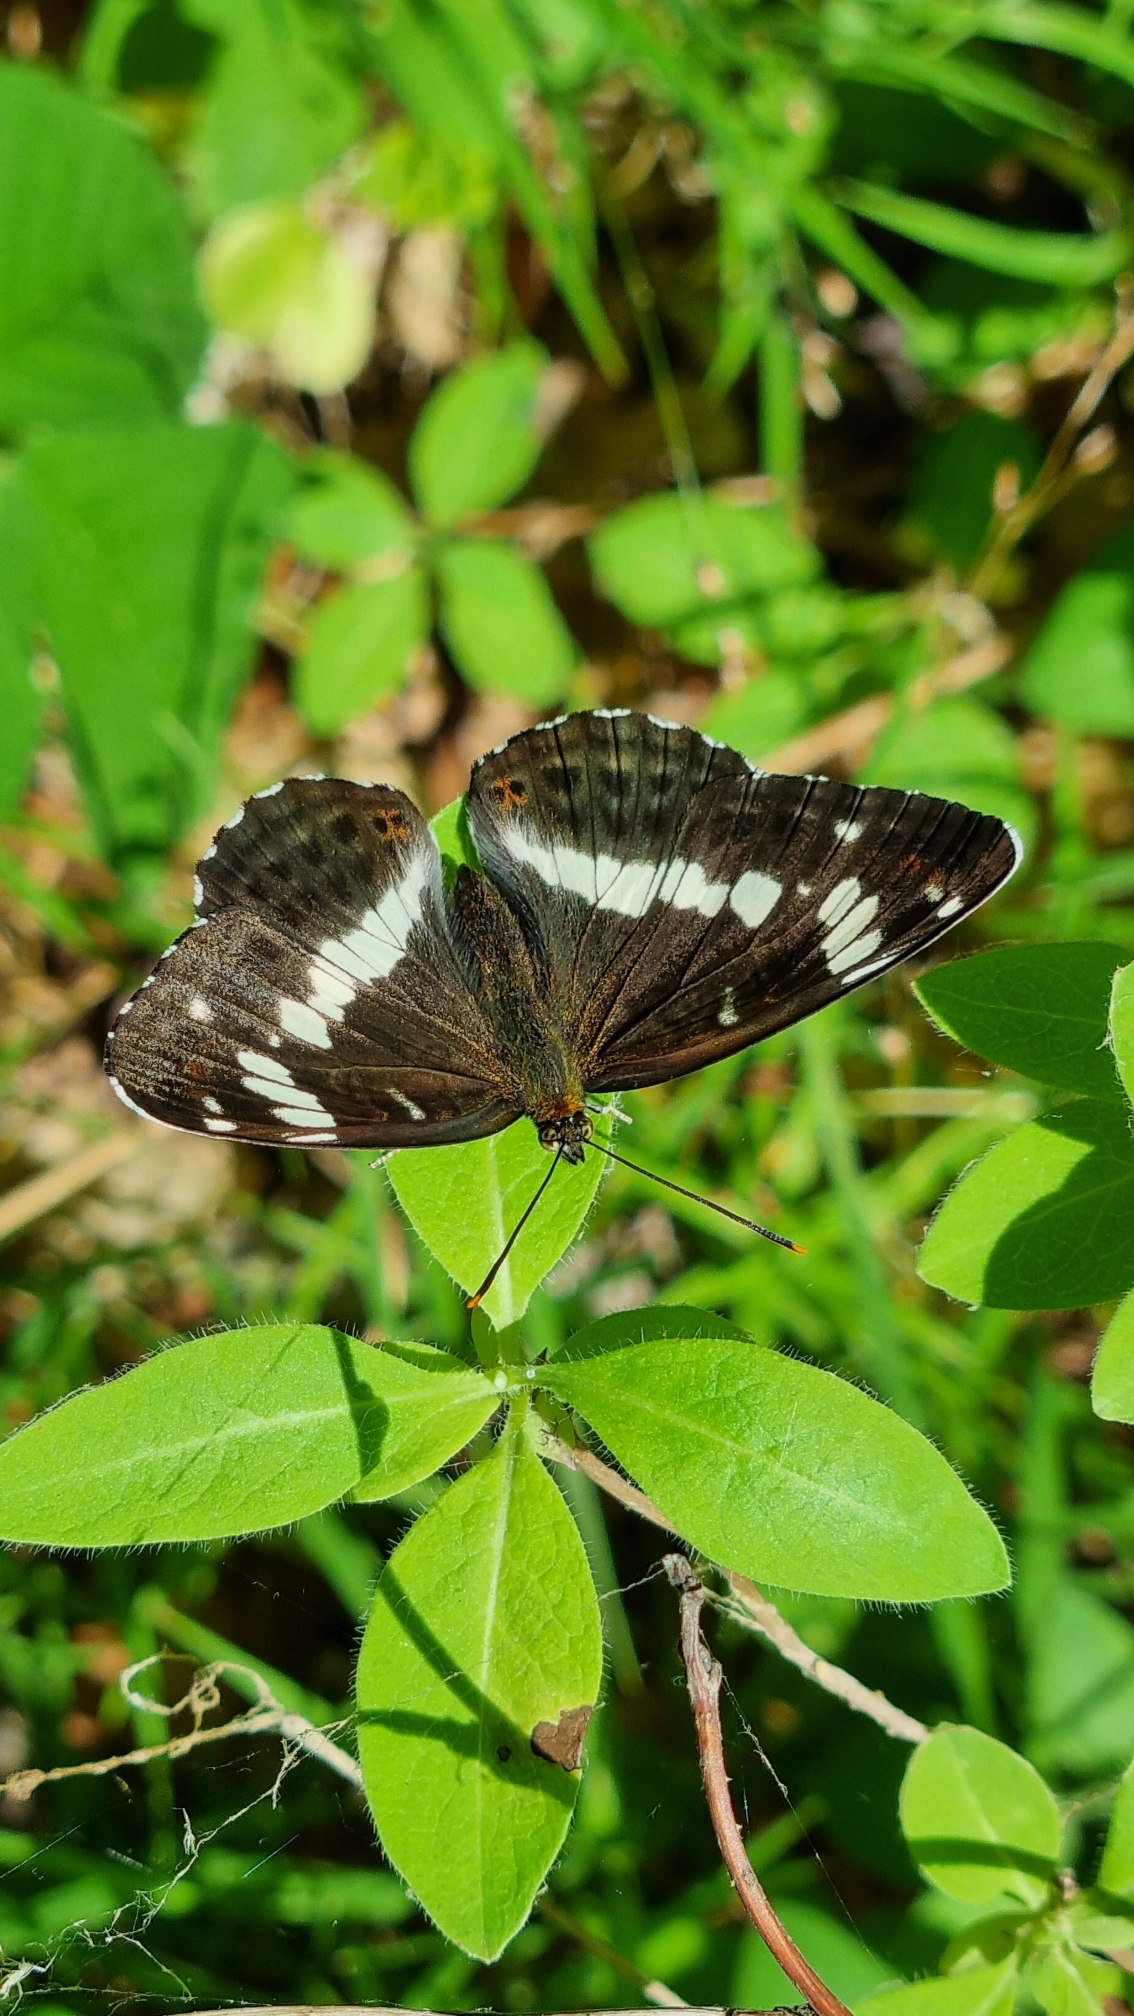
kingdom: Animalia
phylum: Arthropoda
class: Insecta
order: Lepidoptera
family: Nymphalidae
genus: Ladoga
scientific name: Ladoga camilla
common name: Hvid admiral
